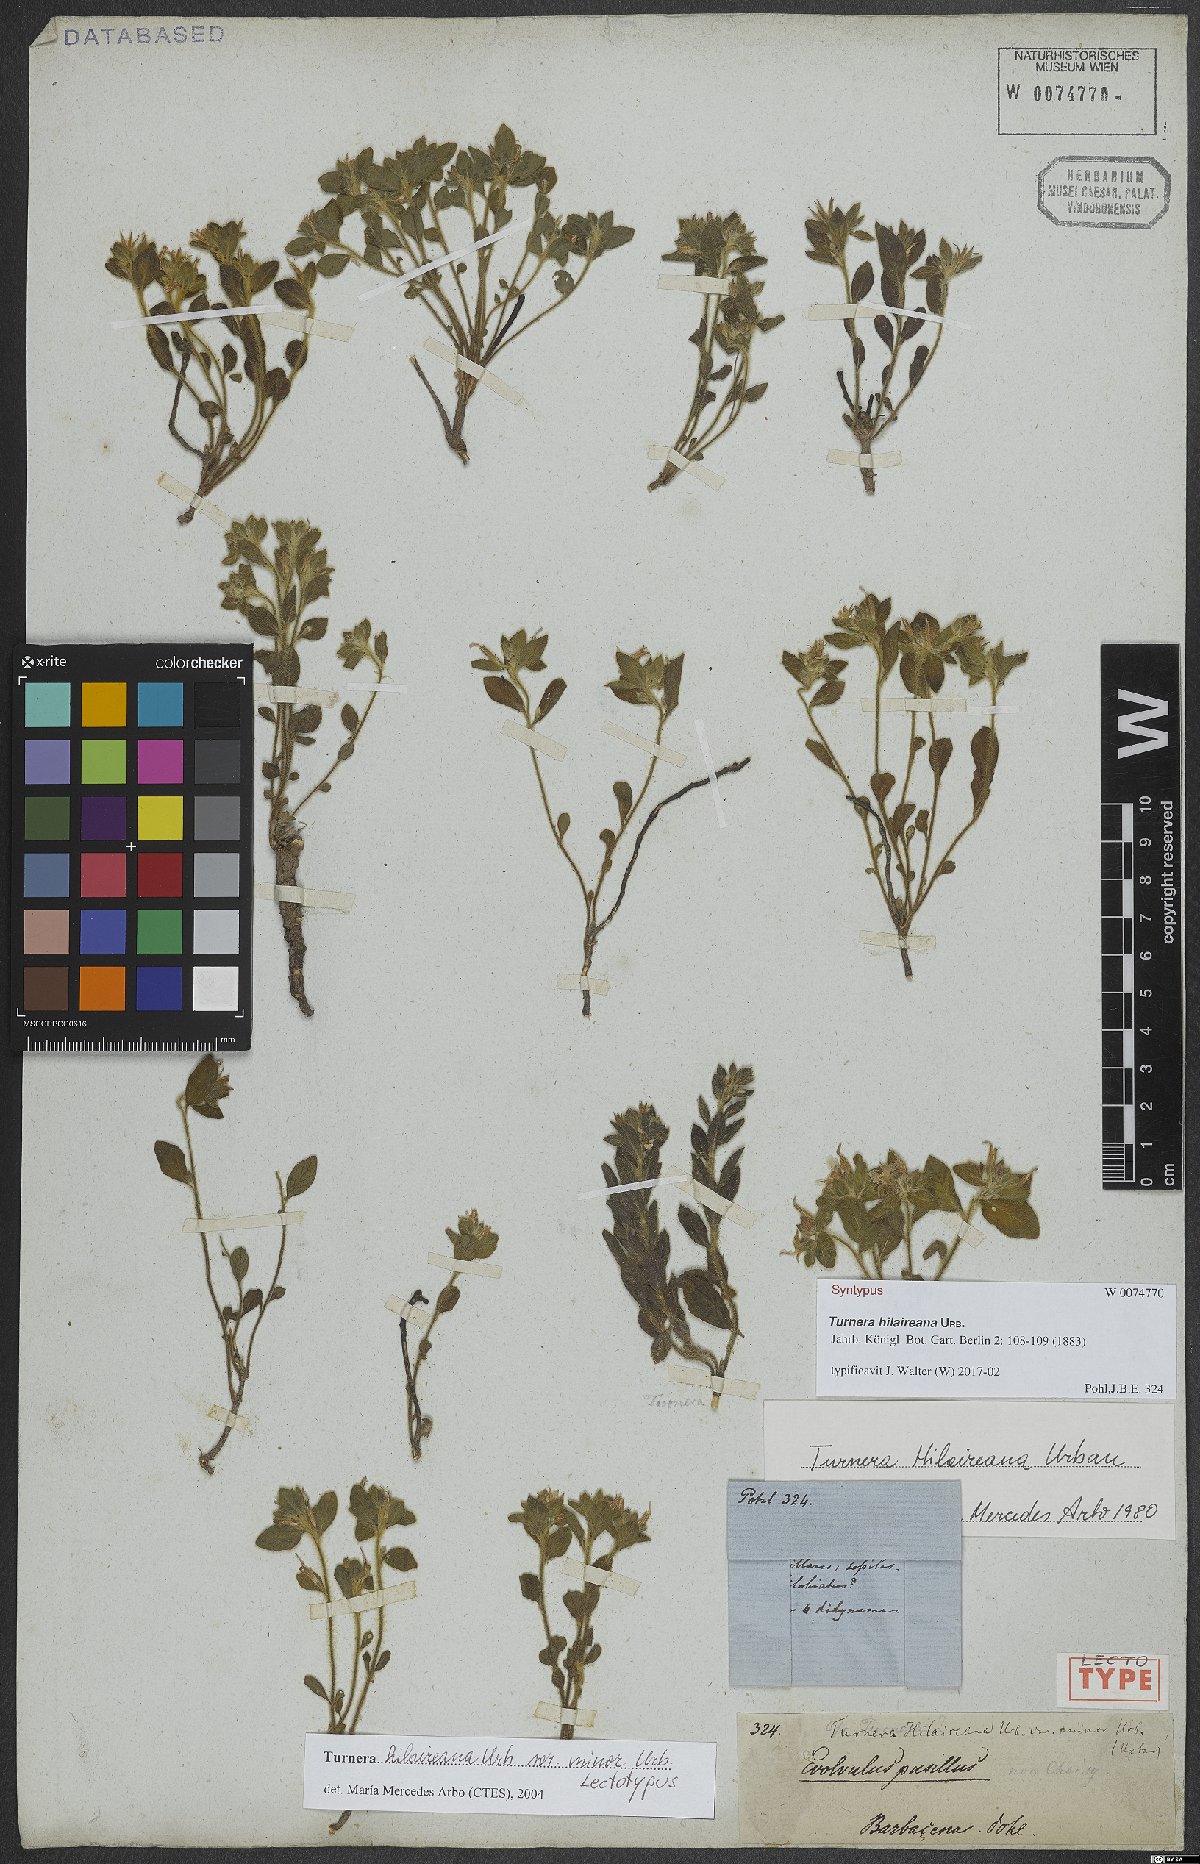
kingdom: Plantae
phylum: Tracheophyta
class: Magnoliopsida
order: Malpighiales
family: Turneraceae
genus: Turnera
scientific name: Turnera hilaireana
